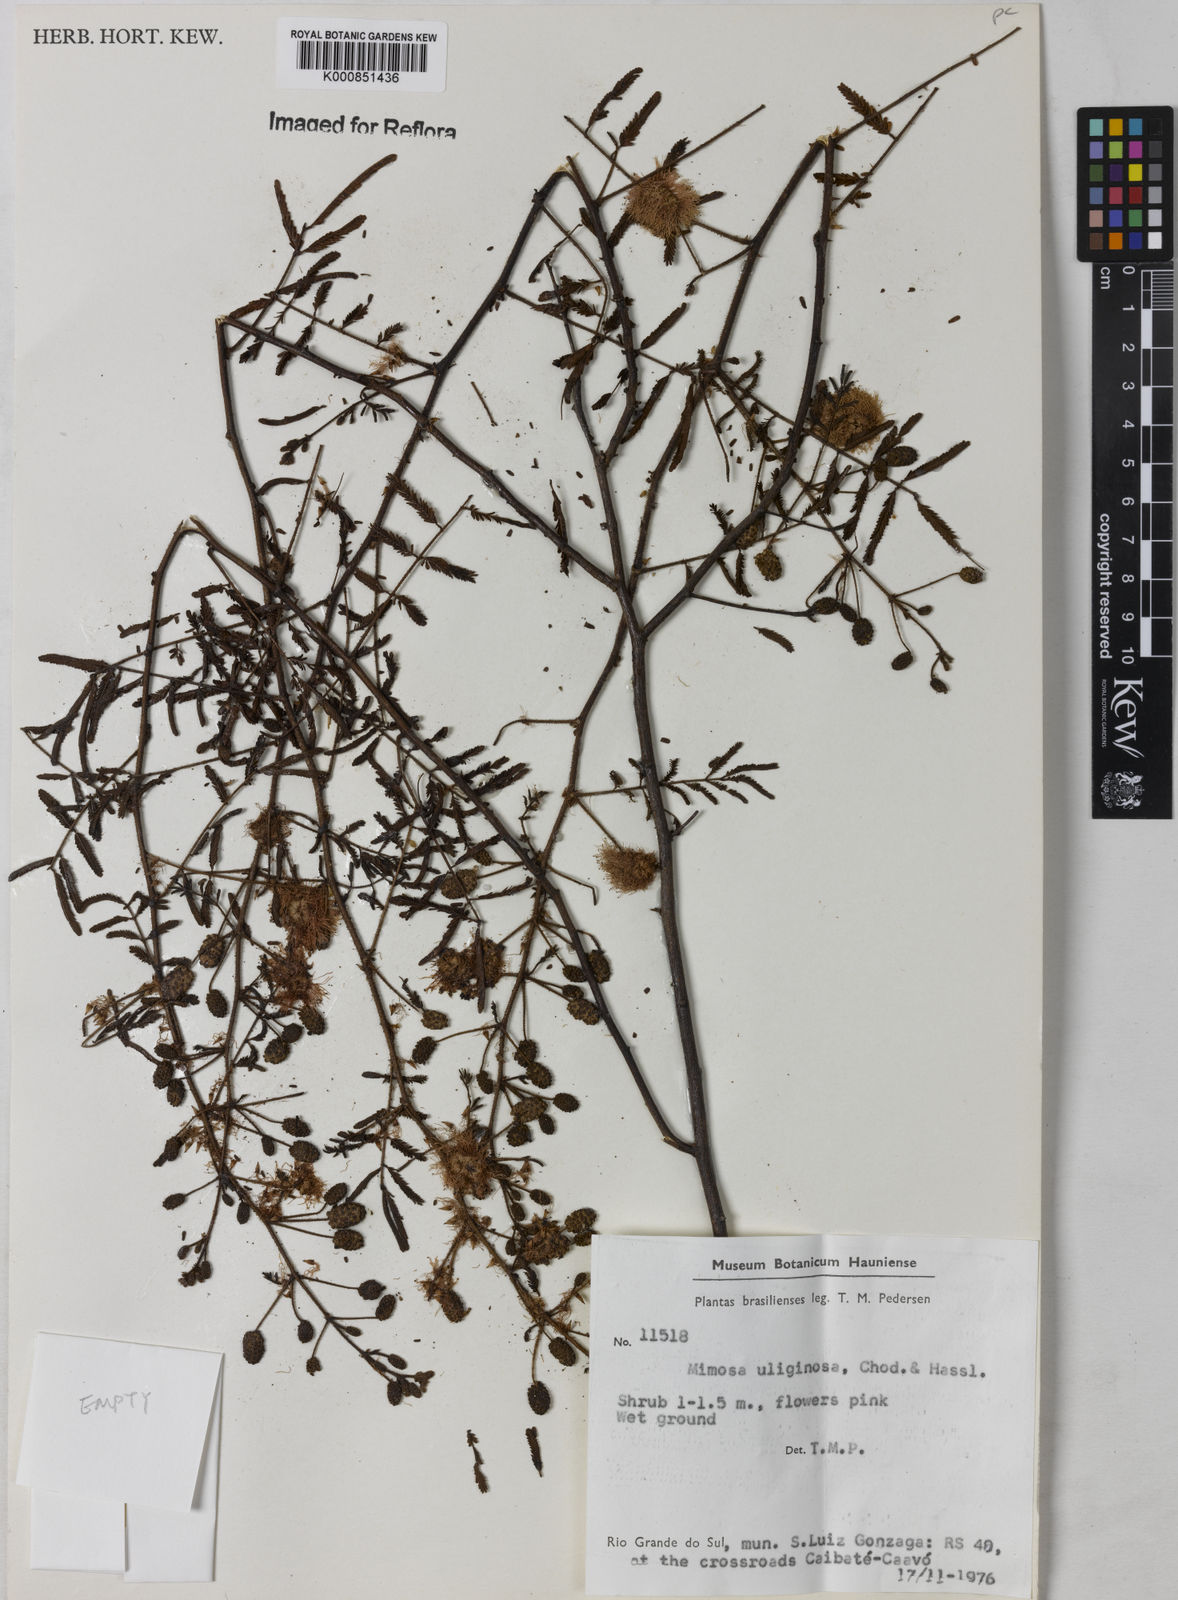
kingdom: Plantae
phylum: Tracheophyta
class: Magnoliopsida
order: Fabales
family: Fabaceae
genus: Mimosa
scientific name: Mimosa uliginosa
